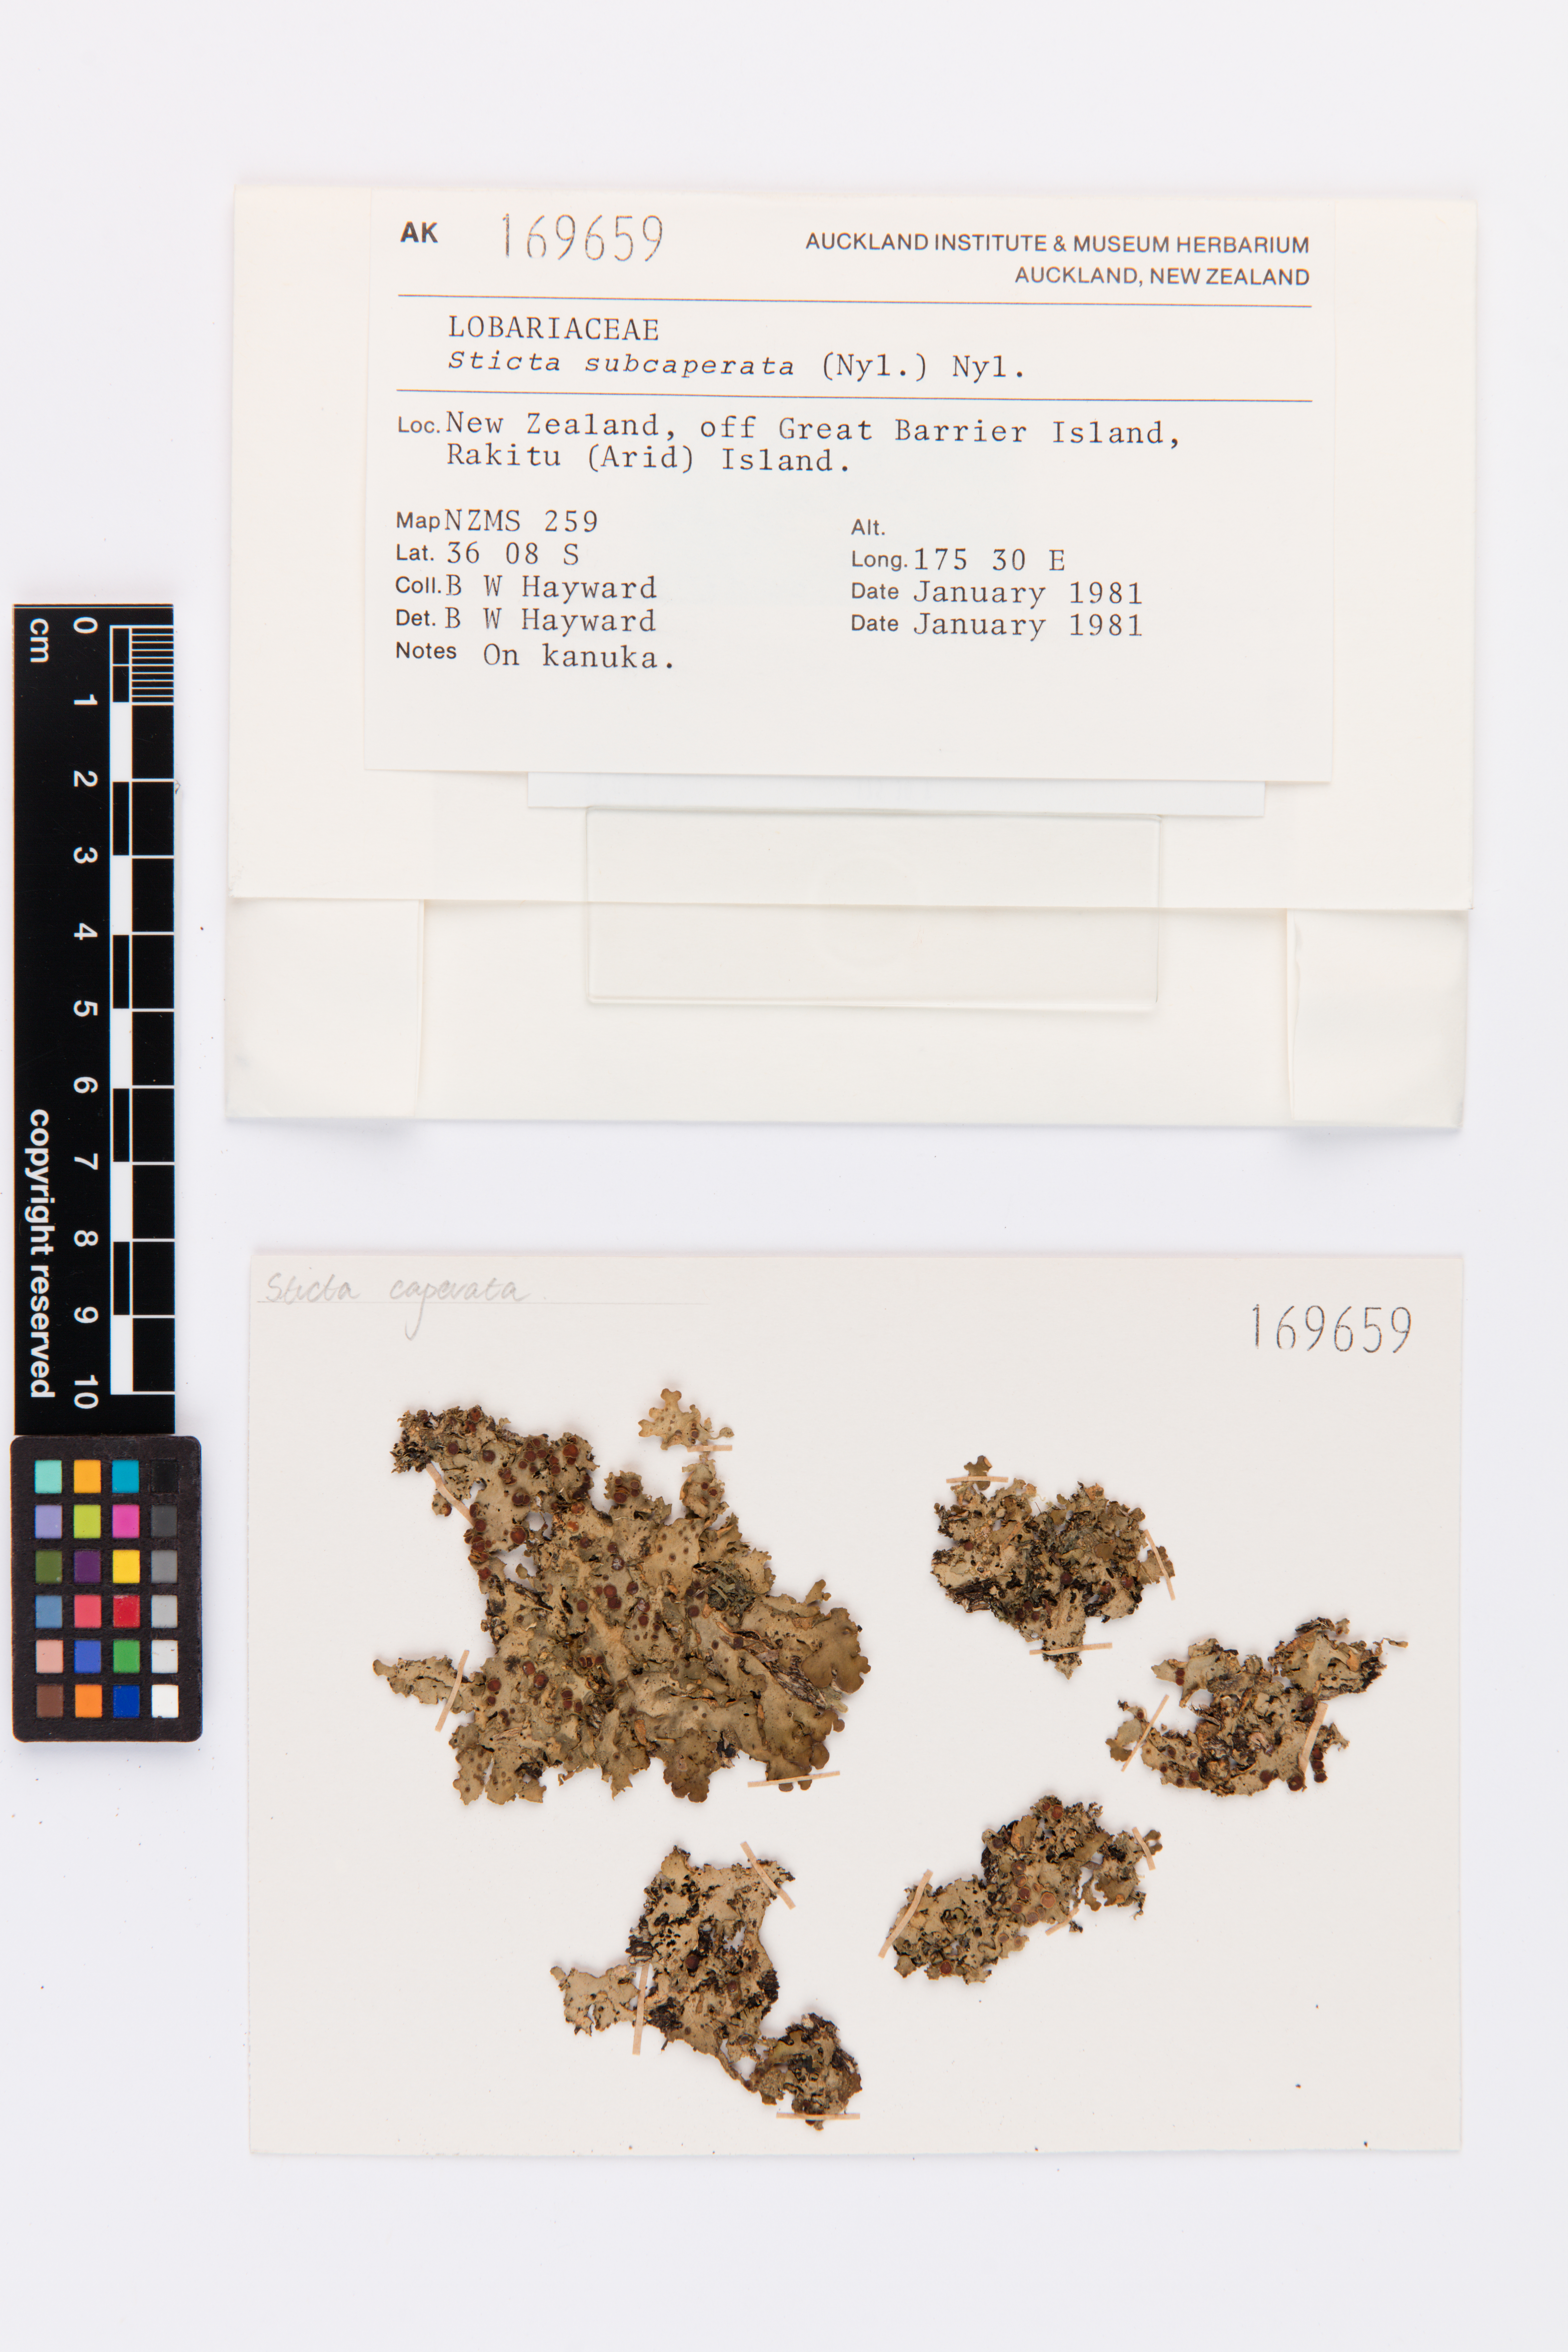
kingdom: Fungi
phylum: Ascomycota
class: Lecanoromycetes
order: Peltigerales
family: Lobariaceae
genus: Sticta
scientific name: Sticta subcaperata
